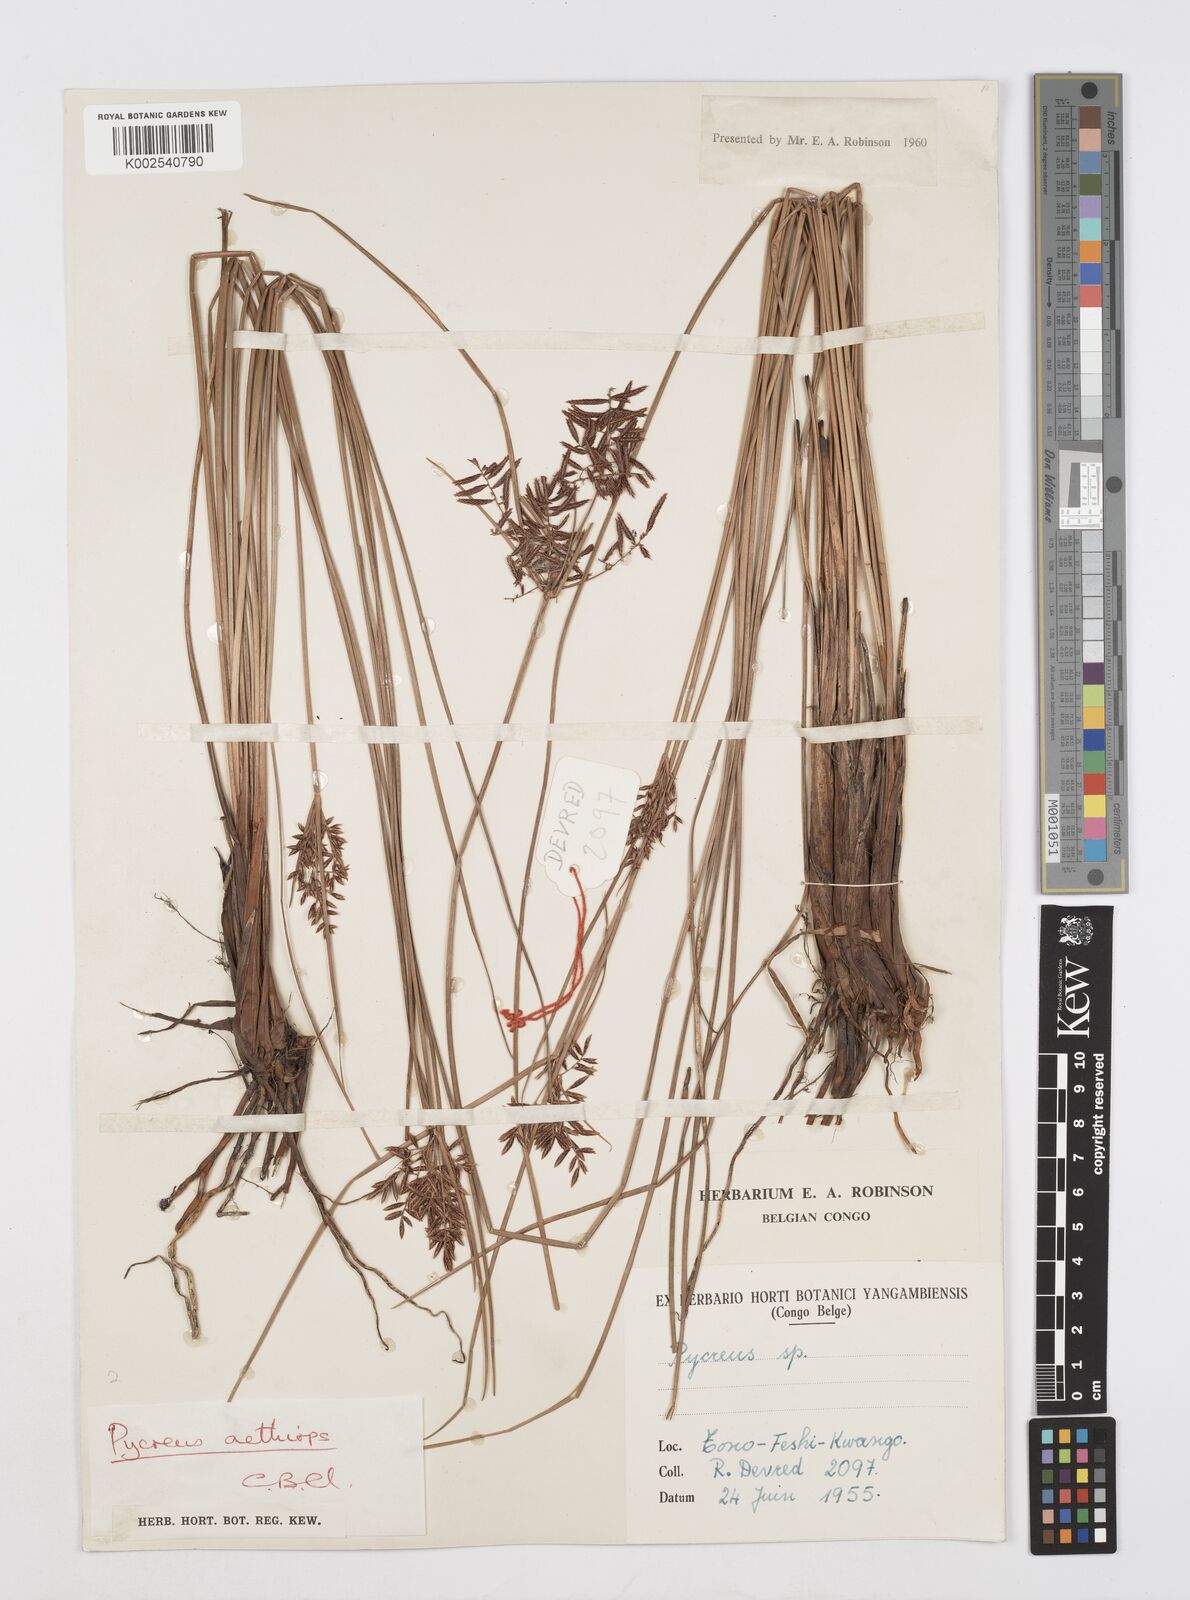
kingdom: Plantae
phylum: Tracheophyta
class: Liliopsida
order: Poales
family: Cyperaceae
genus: Cyperus
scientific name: Cyperus aethiops
